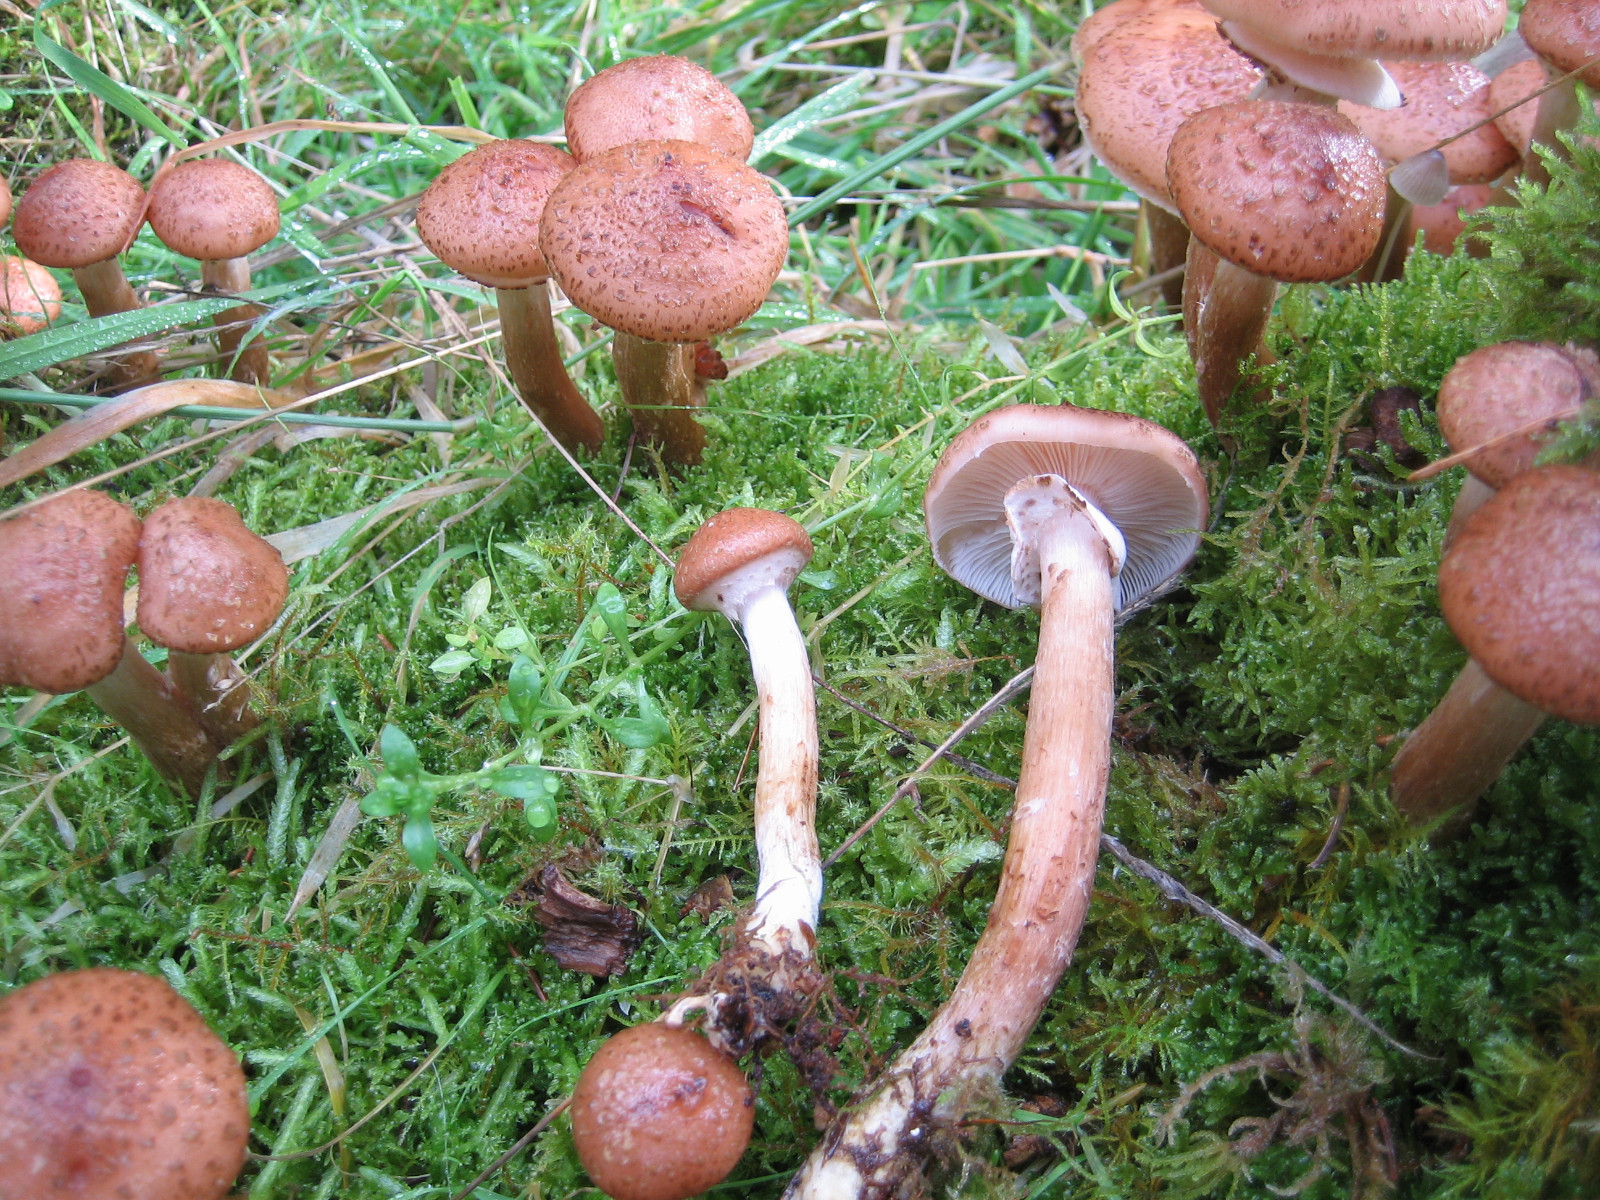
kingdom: Fungi
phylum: Basidiomycota
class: Agaricomycetes
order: Agaricales
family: Physalacriaceae
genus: Armillaria
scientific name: Armillaria ostoyae
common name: mørk honningsvamp
